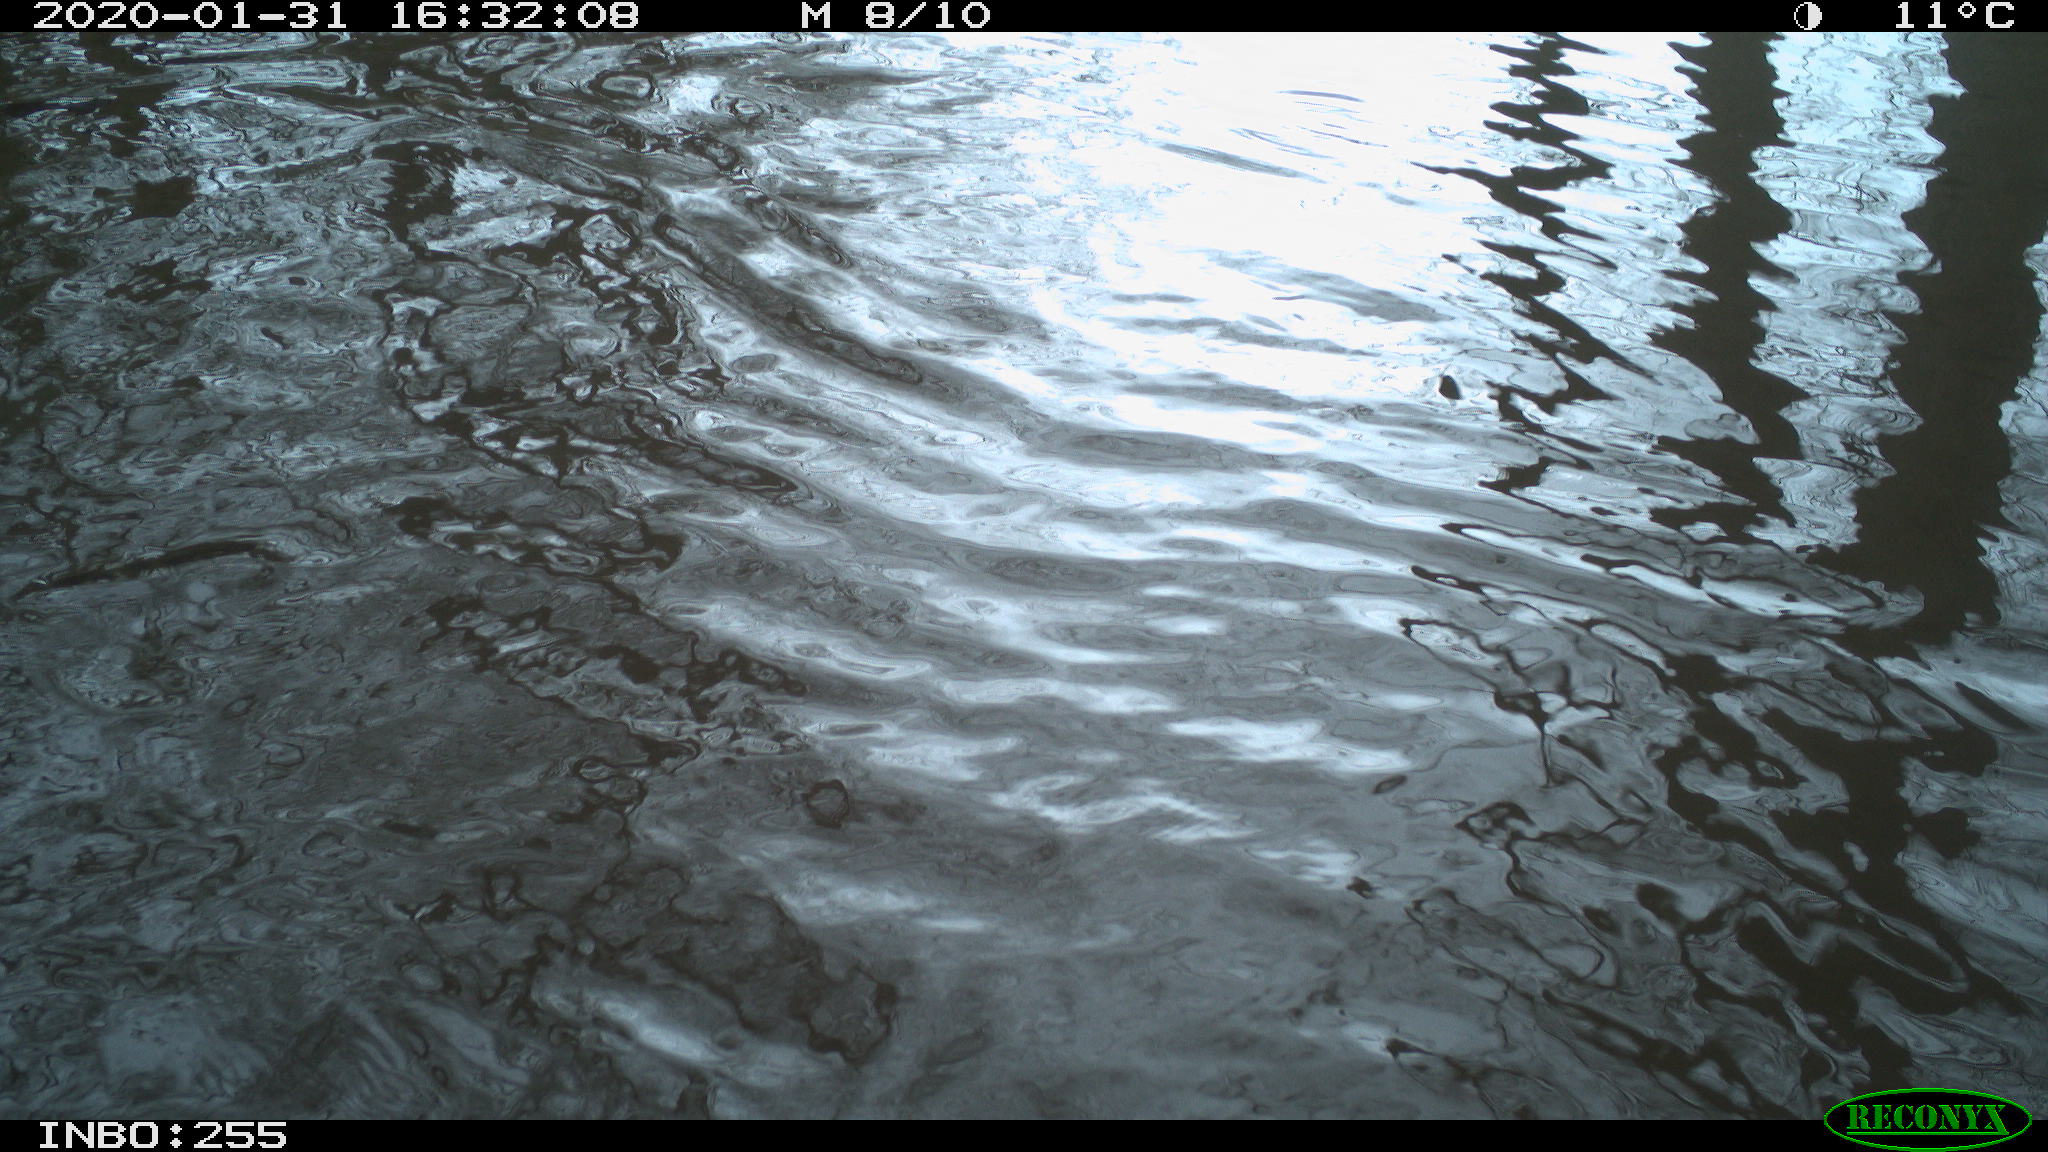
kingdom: Animalia
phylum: Chordata
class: Aves
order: Gruiformes
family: Rallidae
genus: Fulica
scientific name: Fulica atra
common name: Eurasian coot
